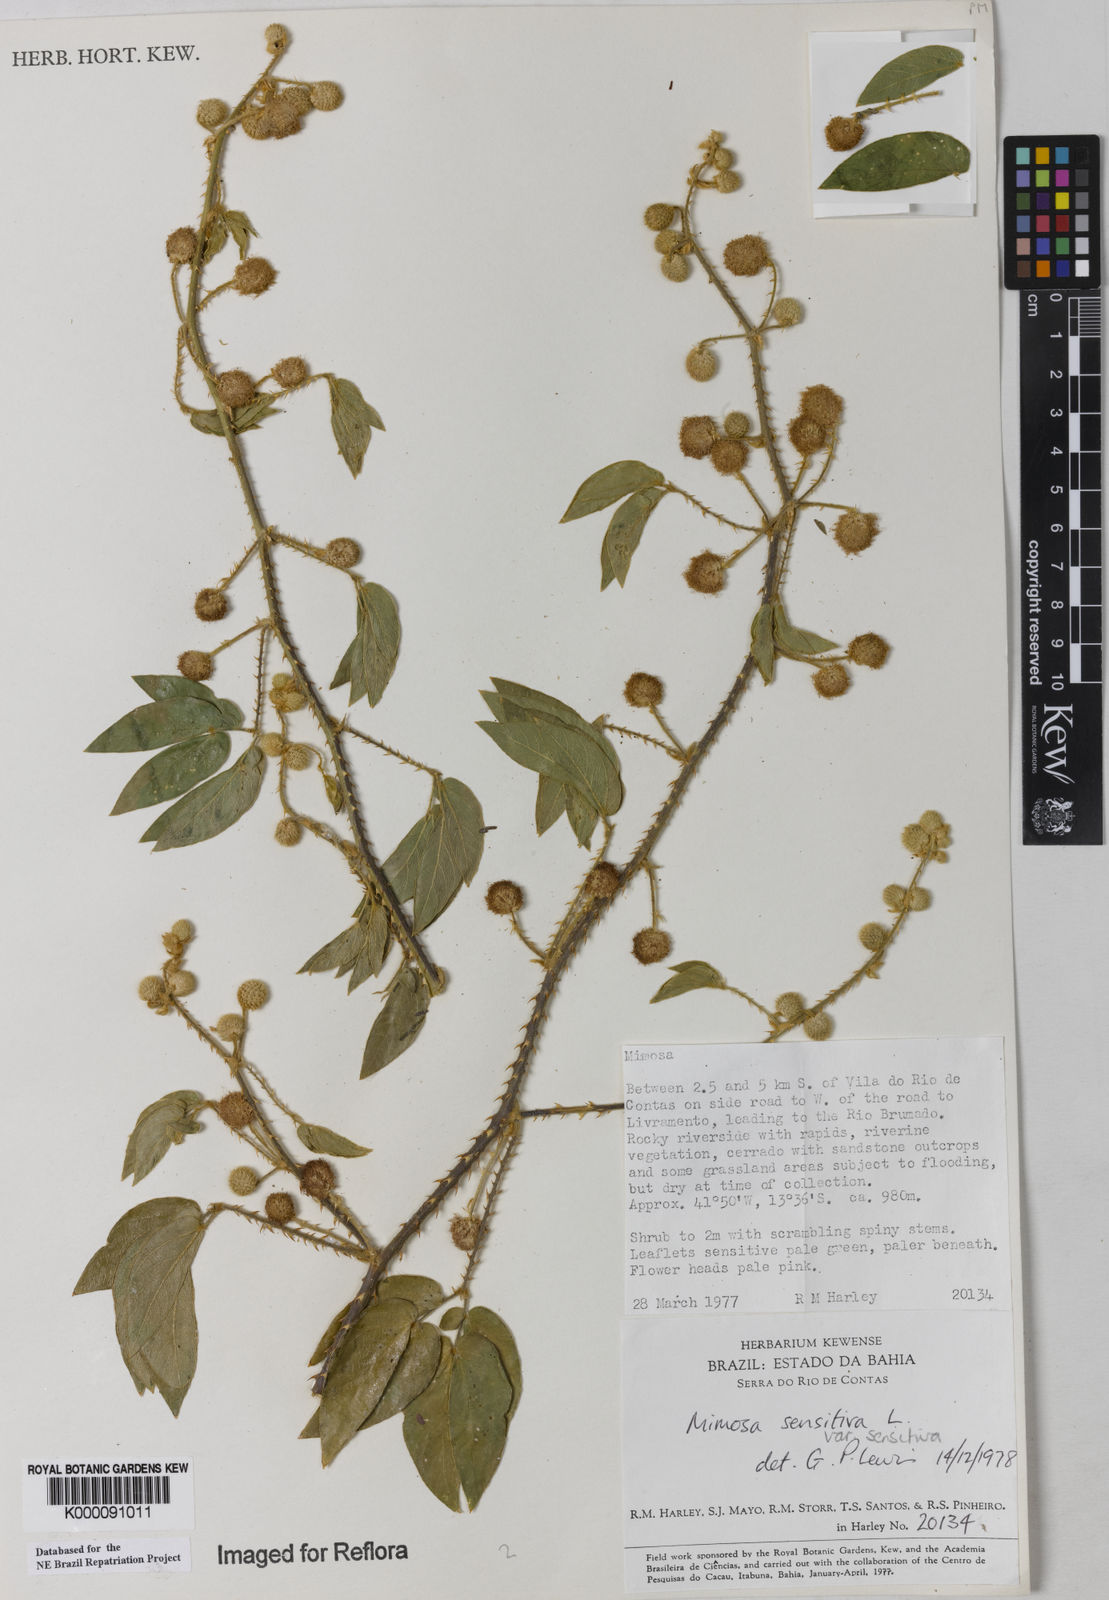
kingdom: Plantae
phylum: Tracheophyta
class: Magnoliopsida
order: Fabales
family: Fabaceae
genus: Mimosa
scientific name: Mimosa sensitiva
